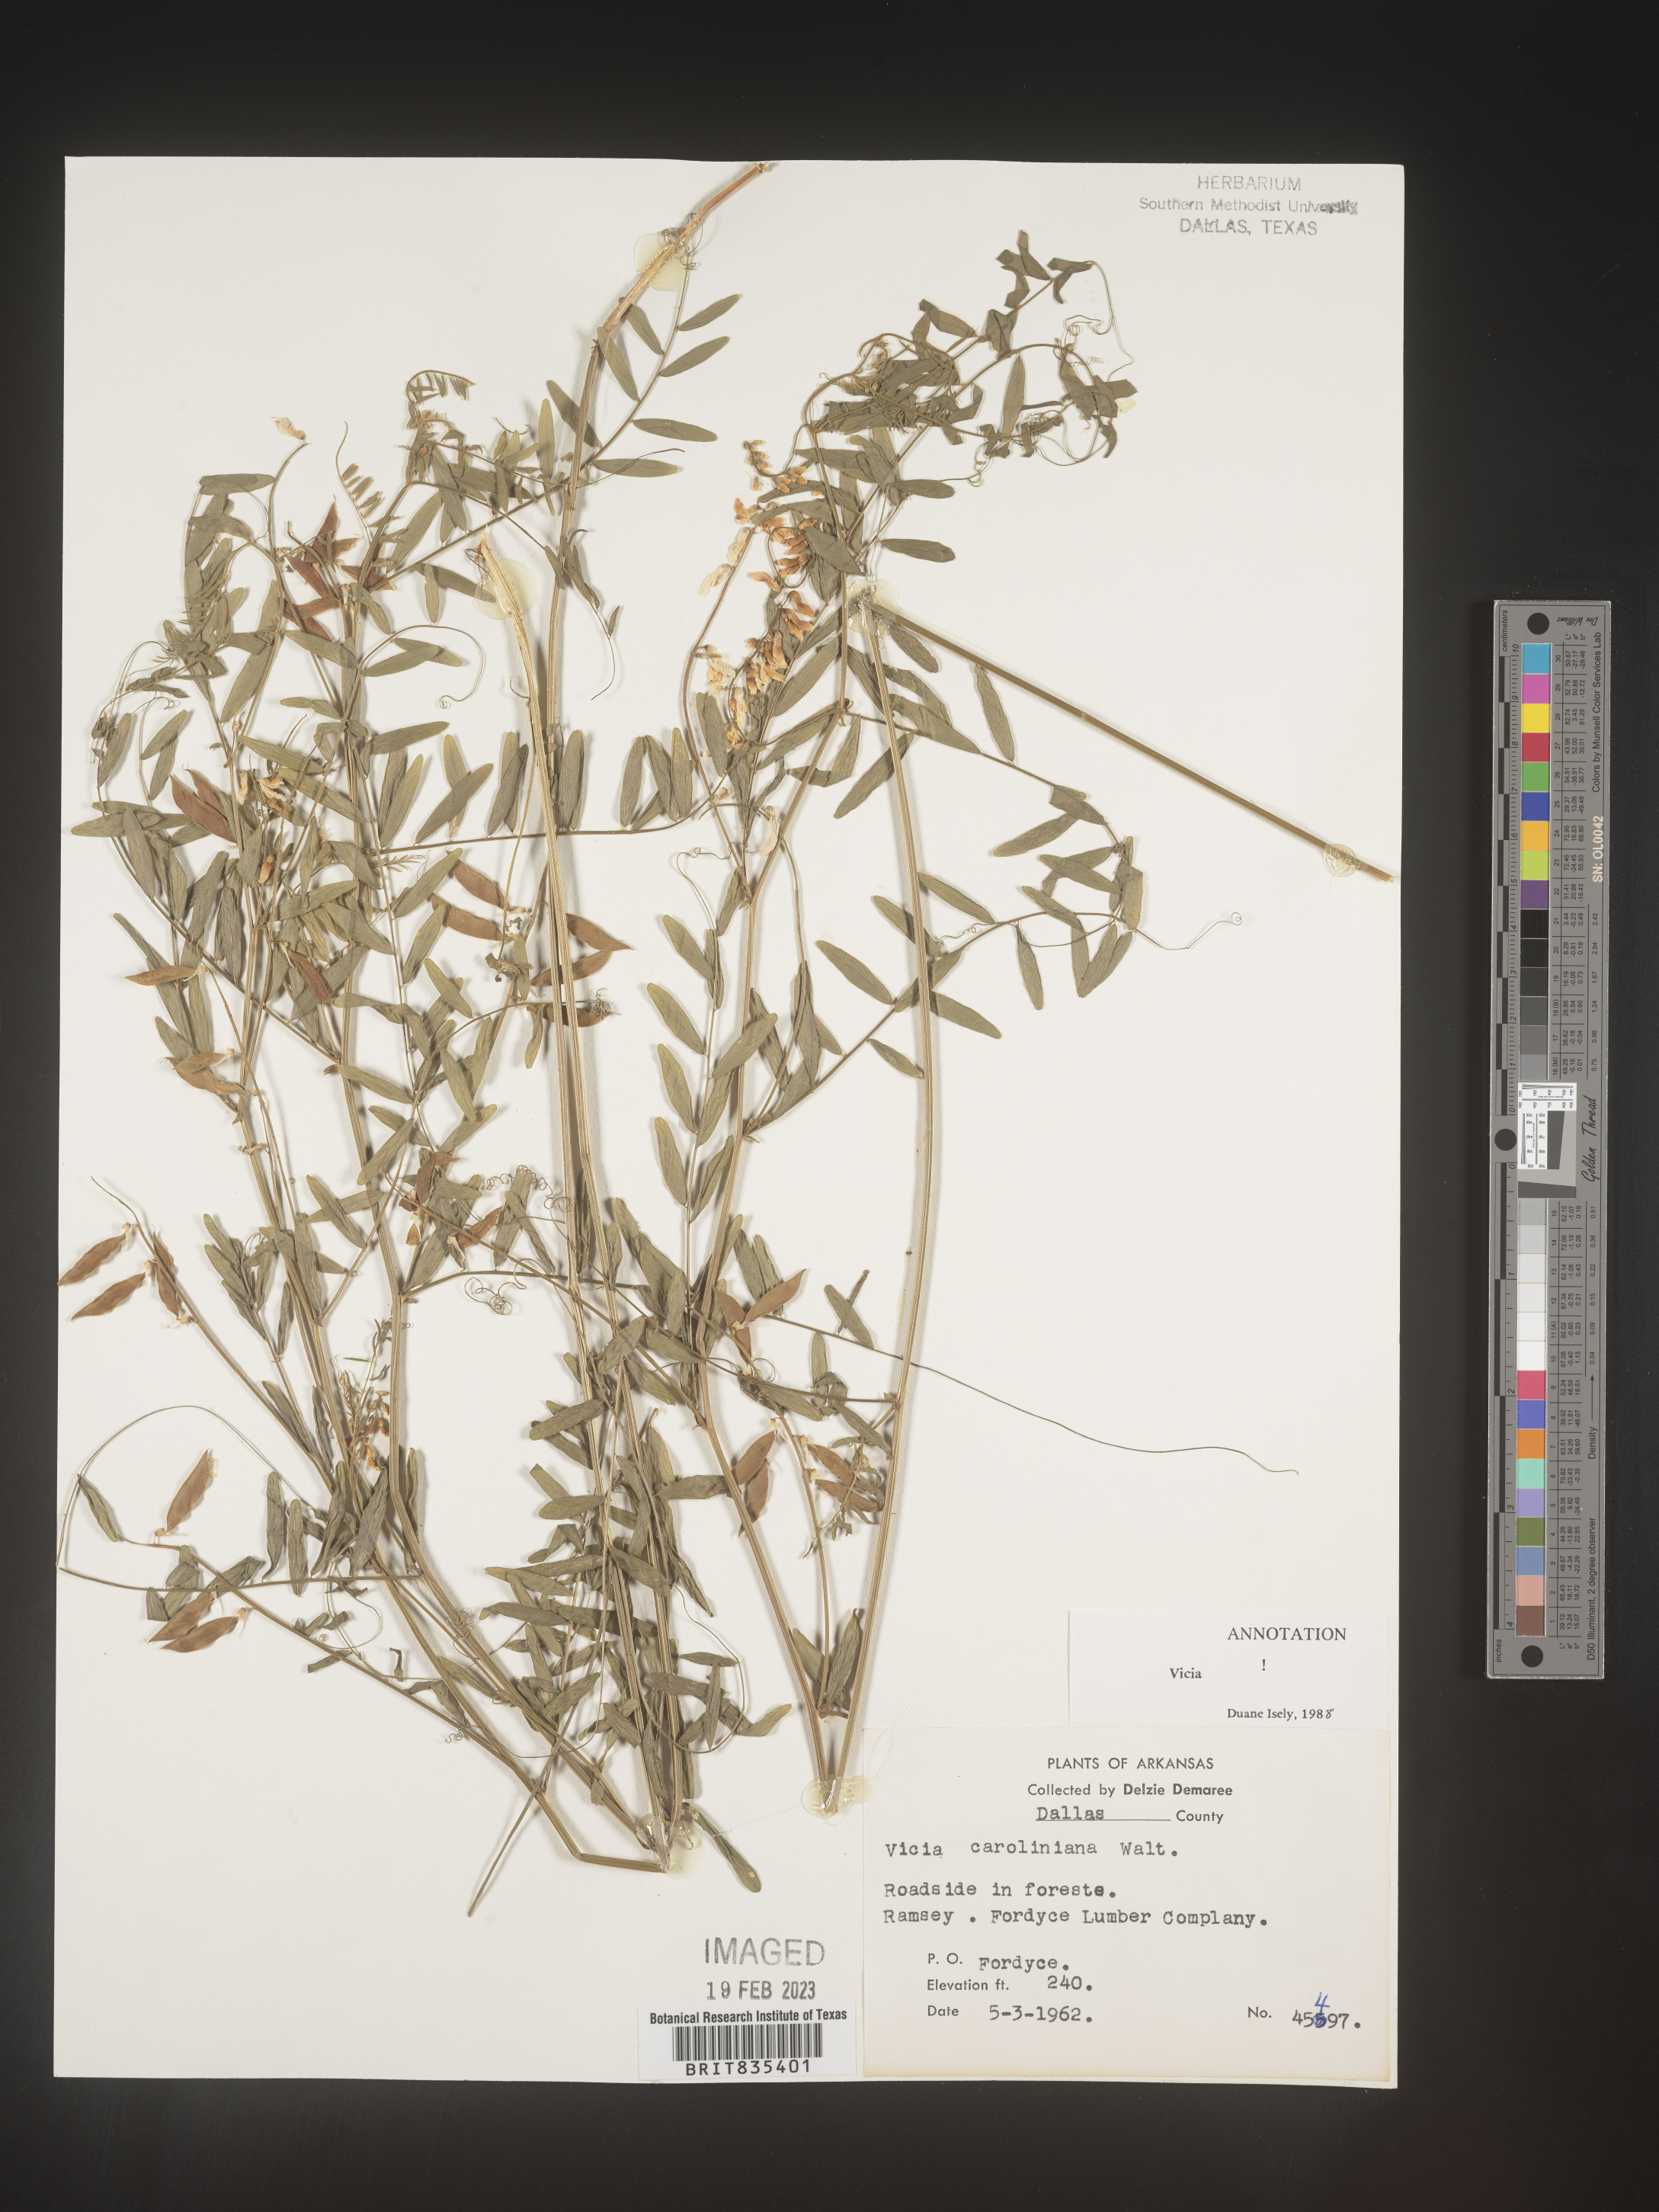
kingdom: Plantae
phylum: Tracheophyta
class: Magnoliopsida
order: Fabales
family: Fabaceae
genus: Vicia
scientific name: Vicia caroliniana
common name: Carolina vetch
